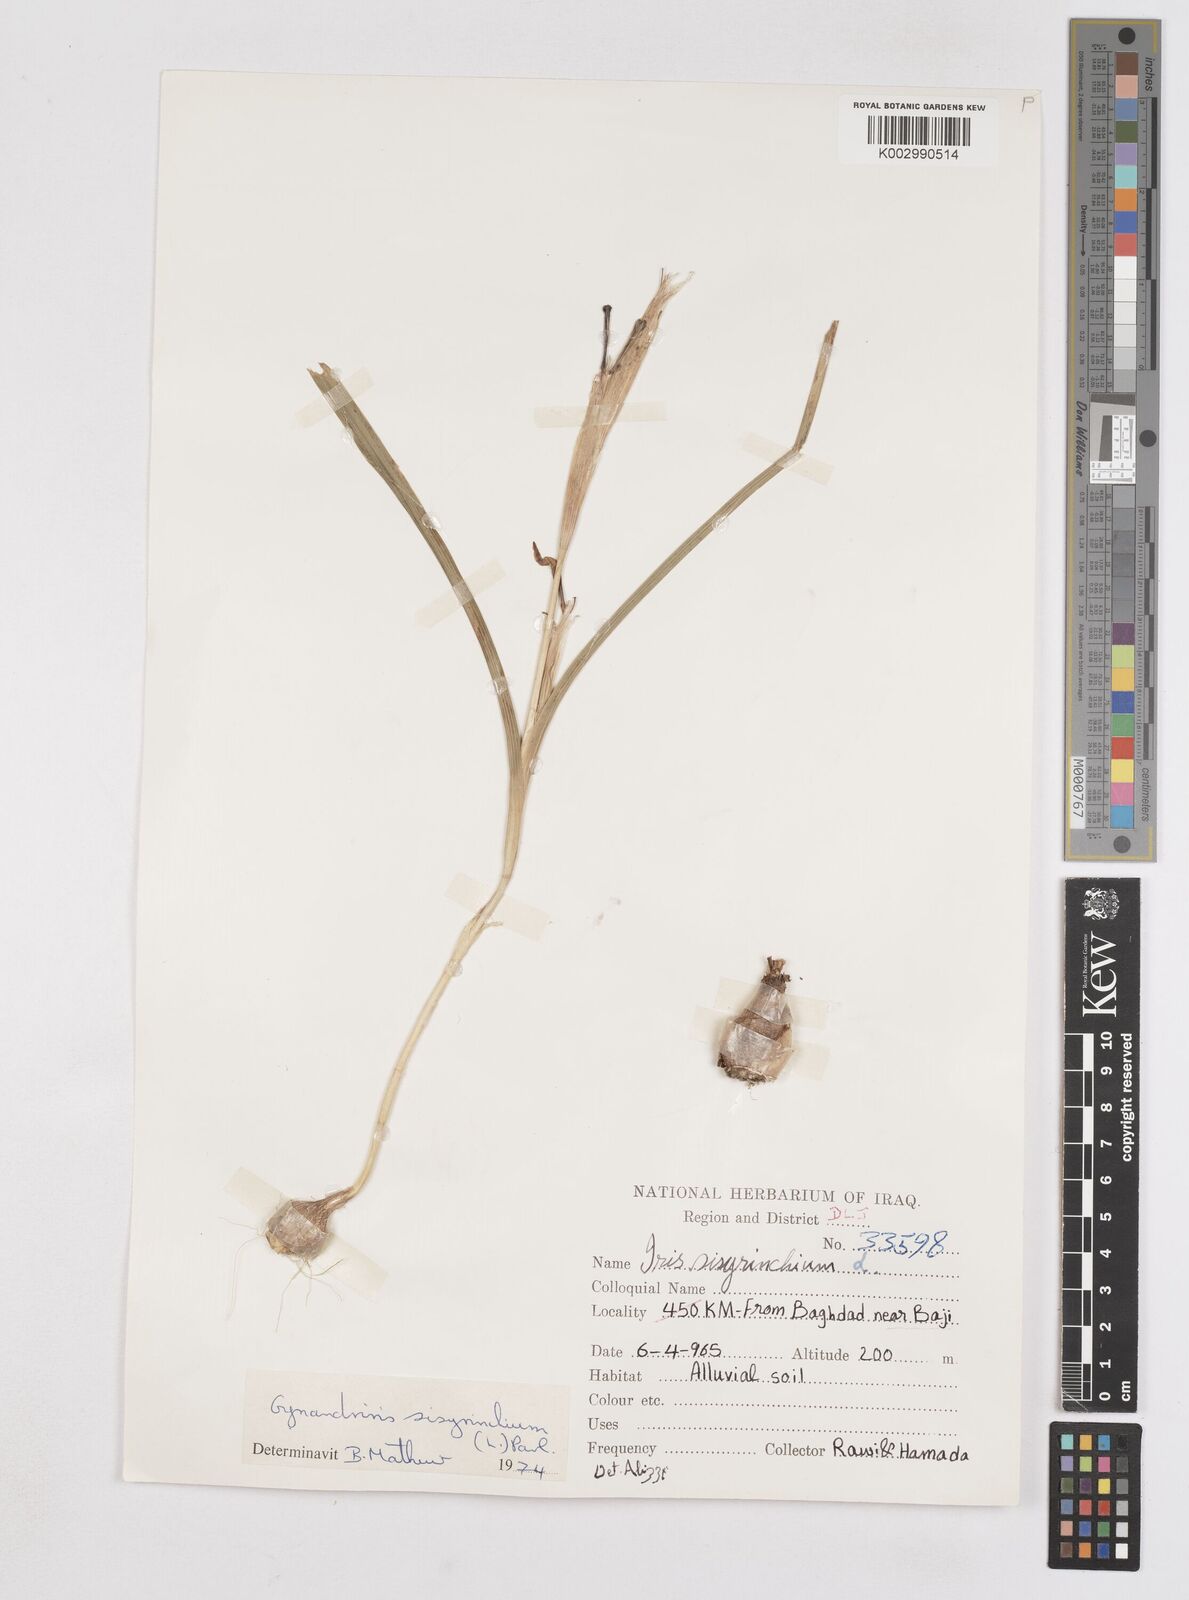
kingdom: Plantae
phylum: Tracheophyta
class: Liliopsida
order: Asparagales
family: Iridaceae
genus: Moraea
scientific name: Moraea sisyrinchium
